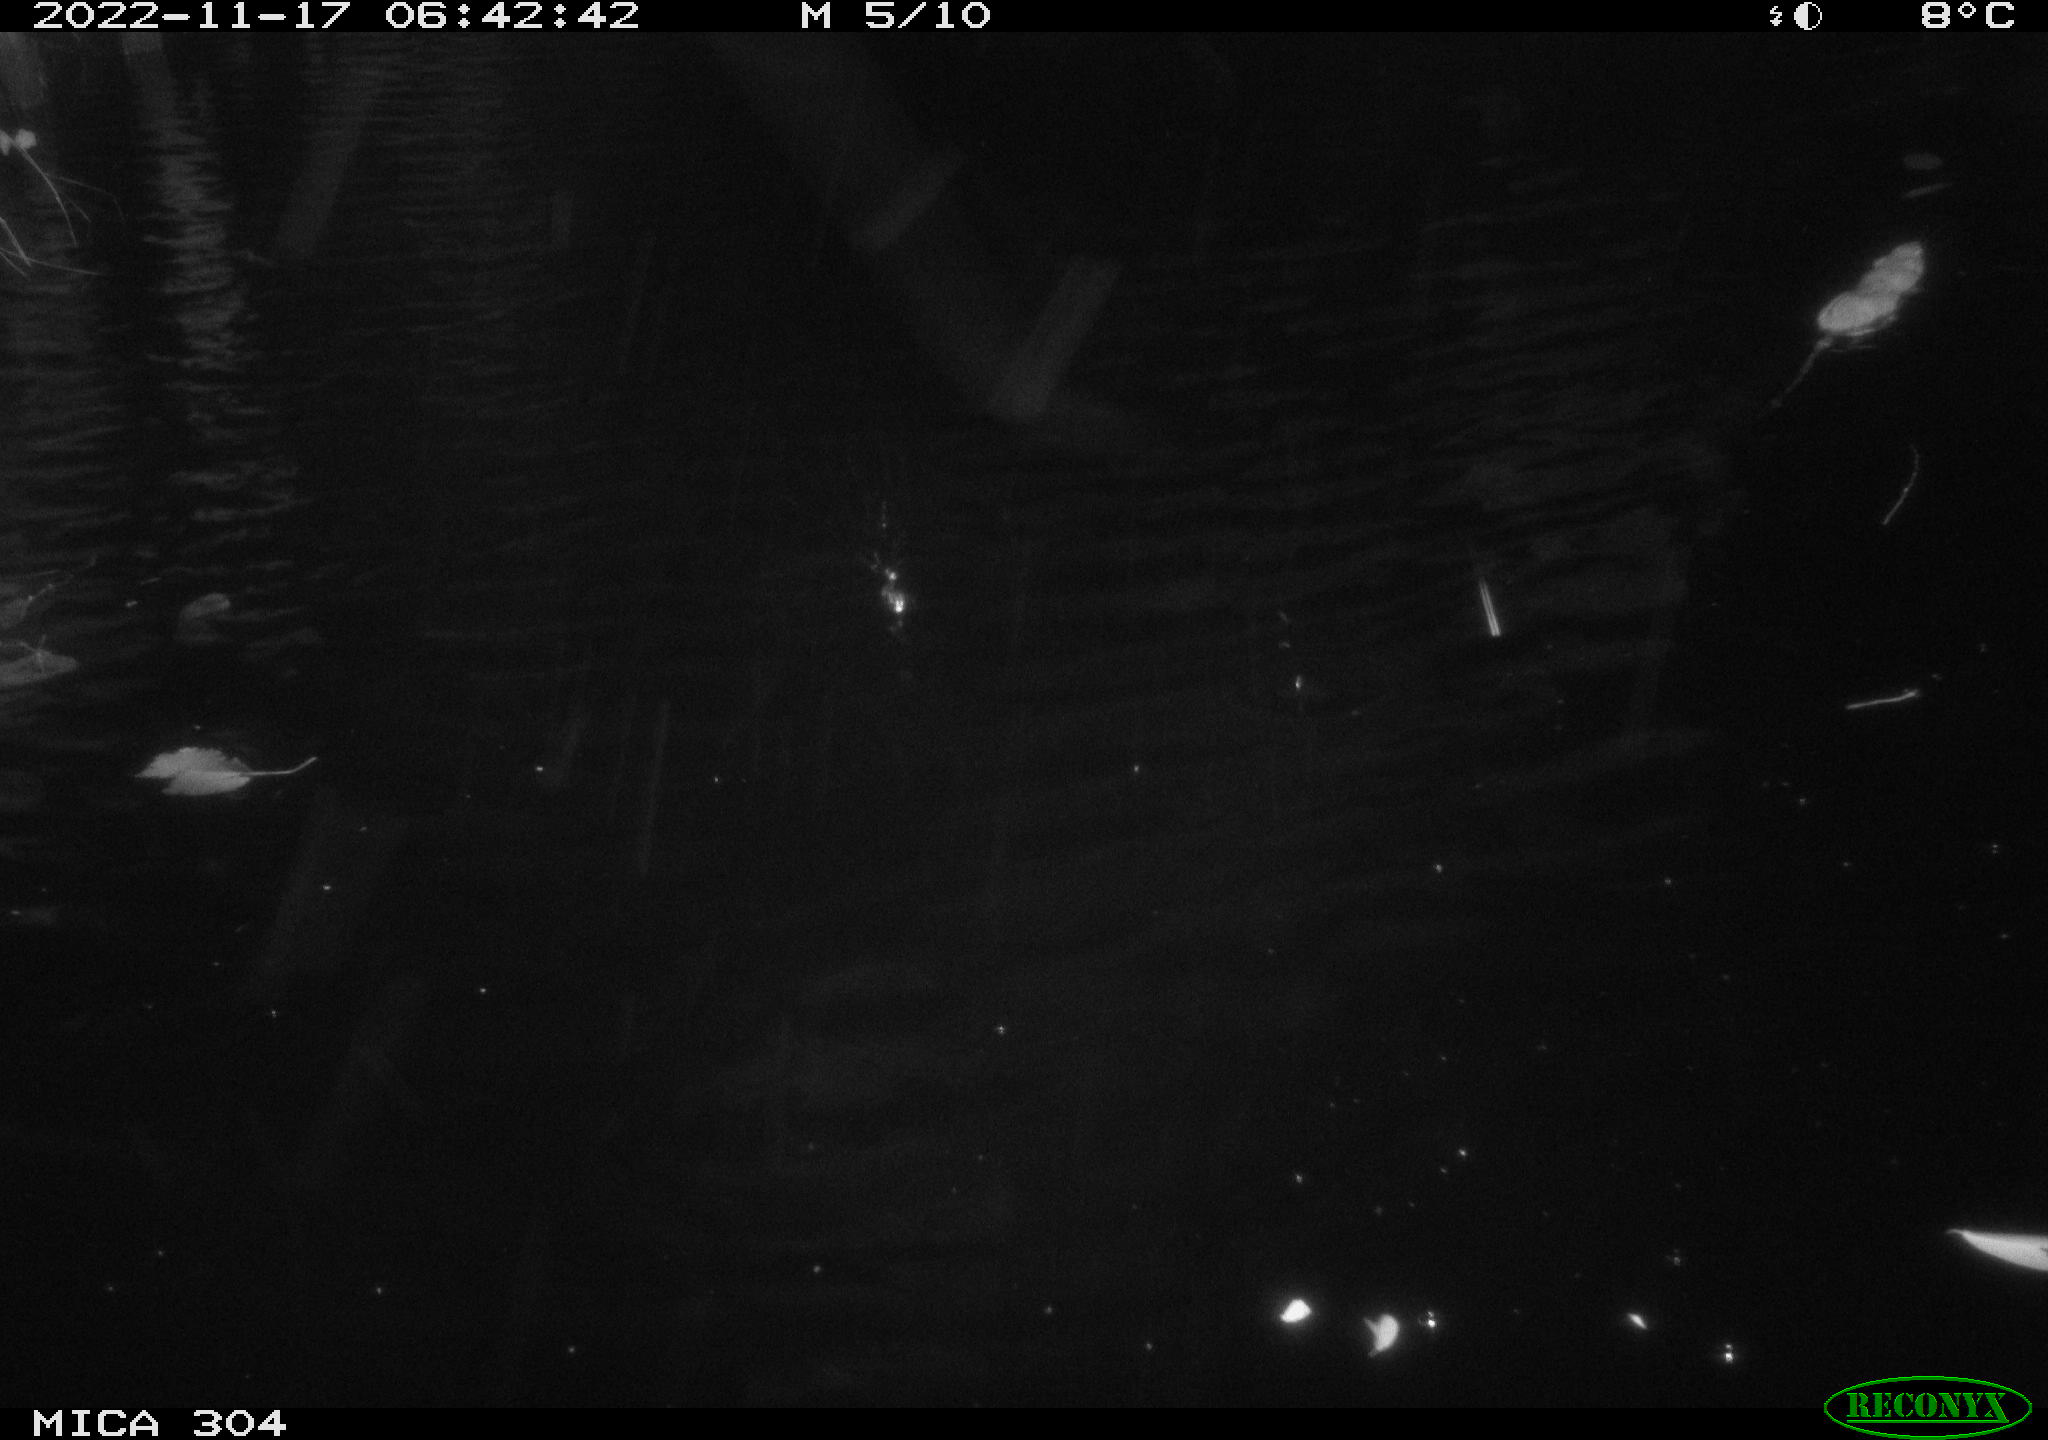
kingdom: Animalia
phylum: Chordata
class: Mammalia
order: Rodentia
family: Muridae
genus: Rattus
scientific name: Rattus norvegicus
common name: Brown rat
